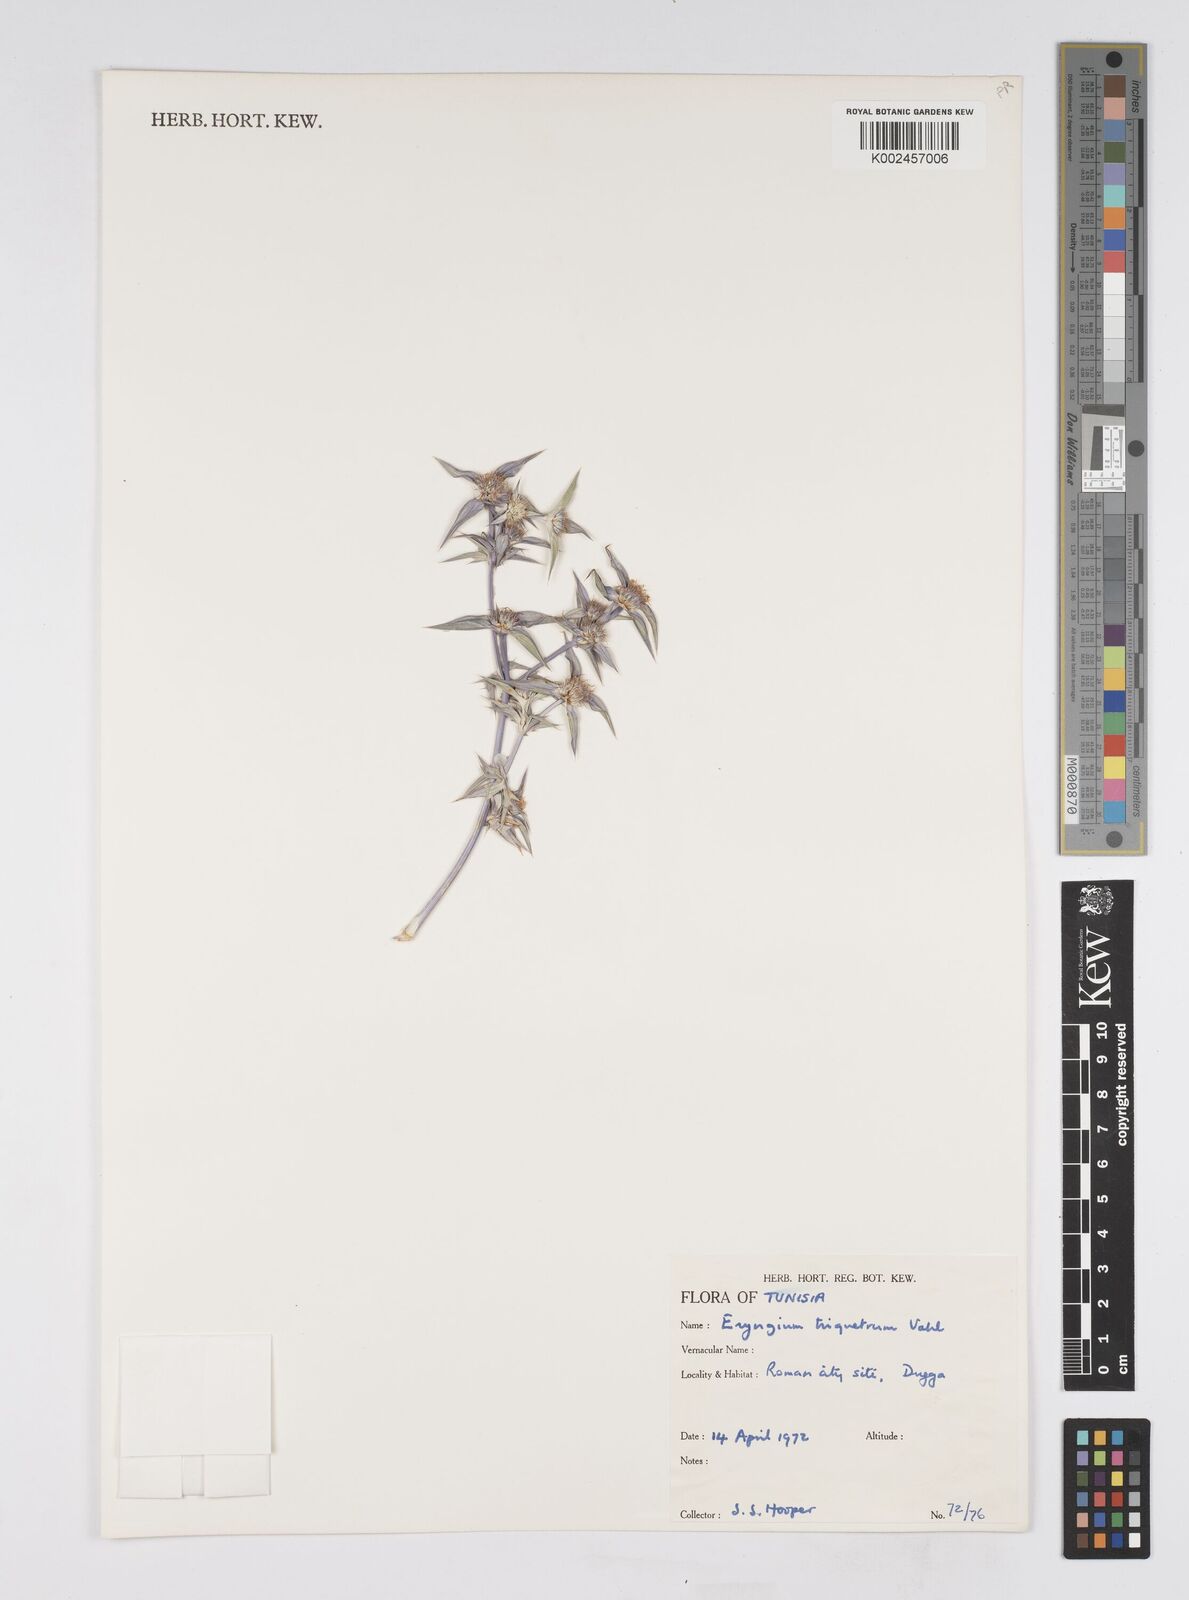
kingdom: Plantae
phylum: Tracheophyta
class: Magnoliopsida
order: Apiales
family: Apiaceae
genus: Eryngium
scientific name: Eryngium triquetrum
